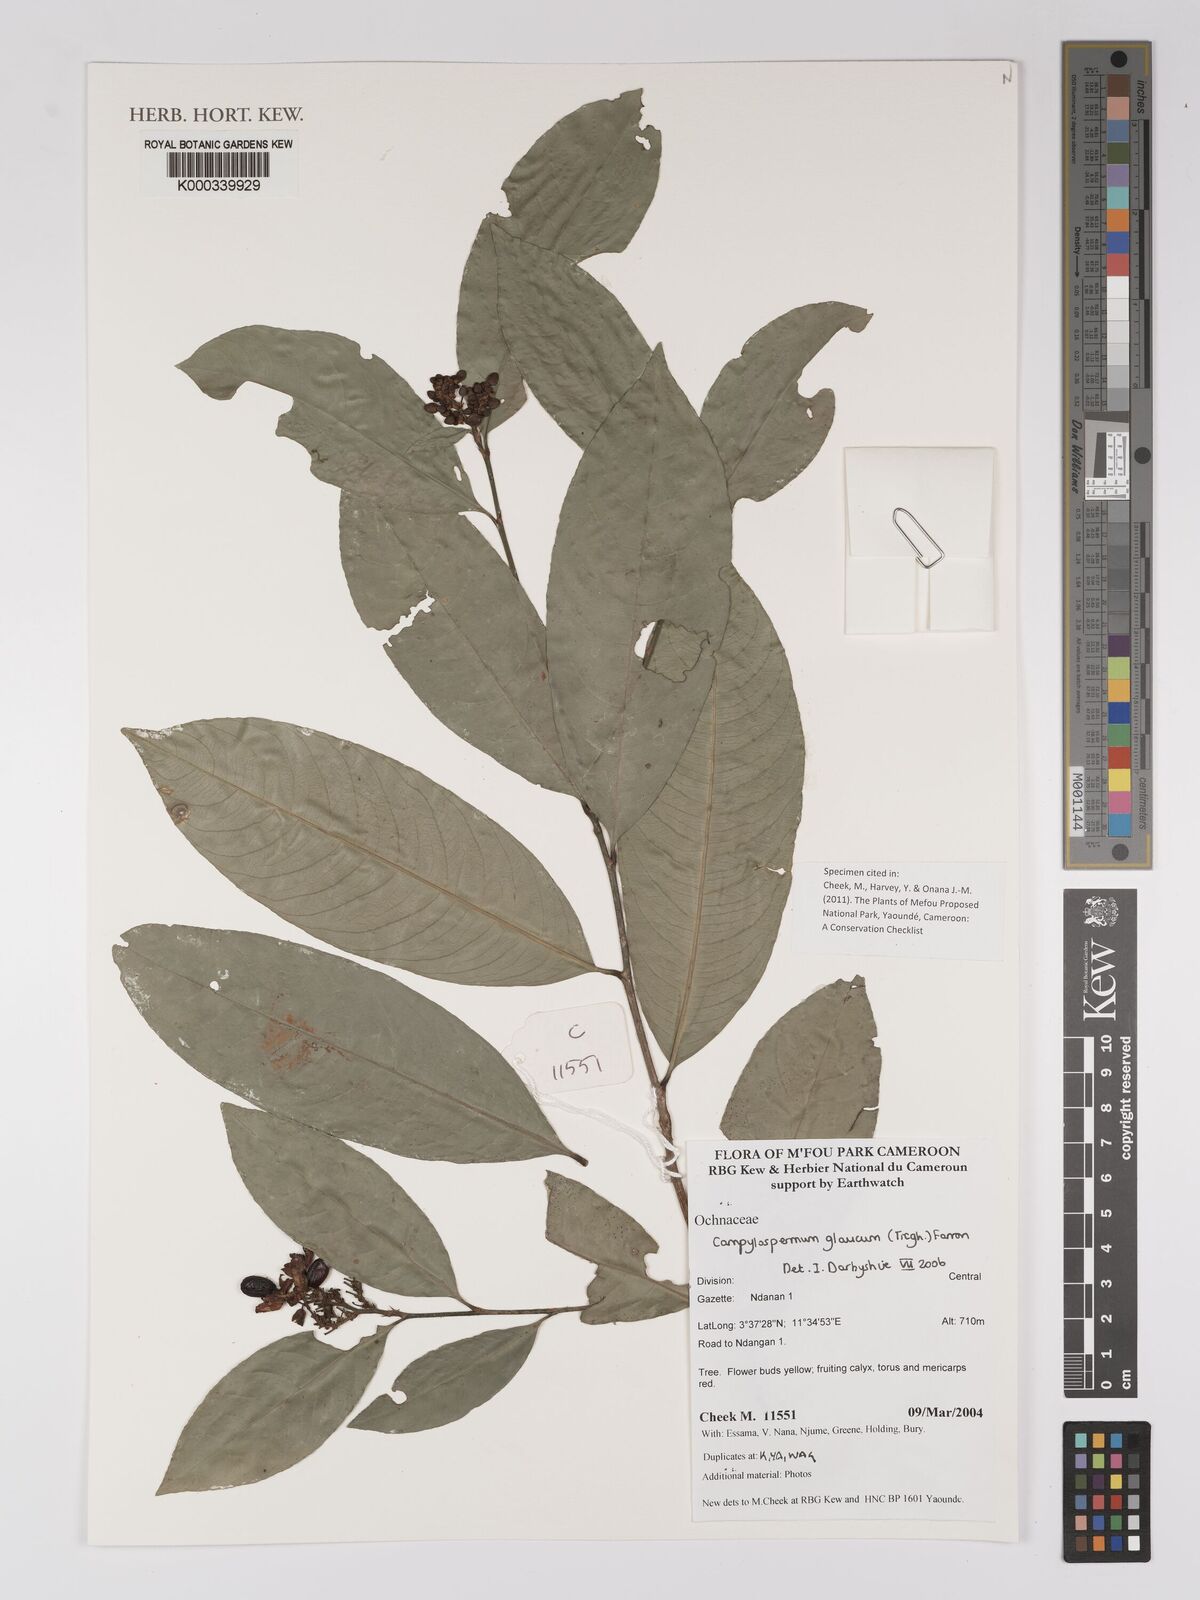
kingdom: Plantae
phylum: Tracheophyta
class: Magnoliopsida
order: Malpighiales
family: Ochnaceae
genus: Campylospermum
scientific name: Campylospermum glaucum
